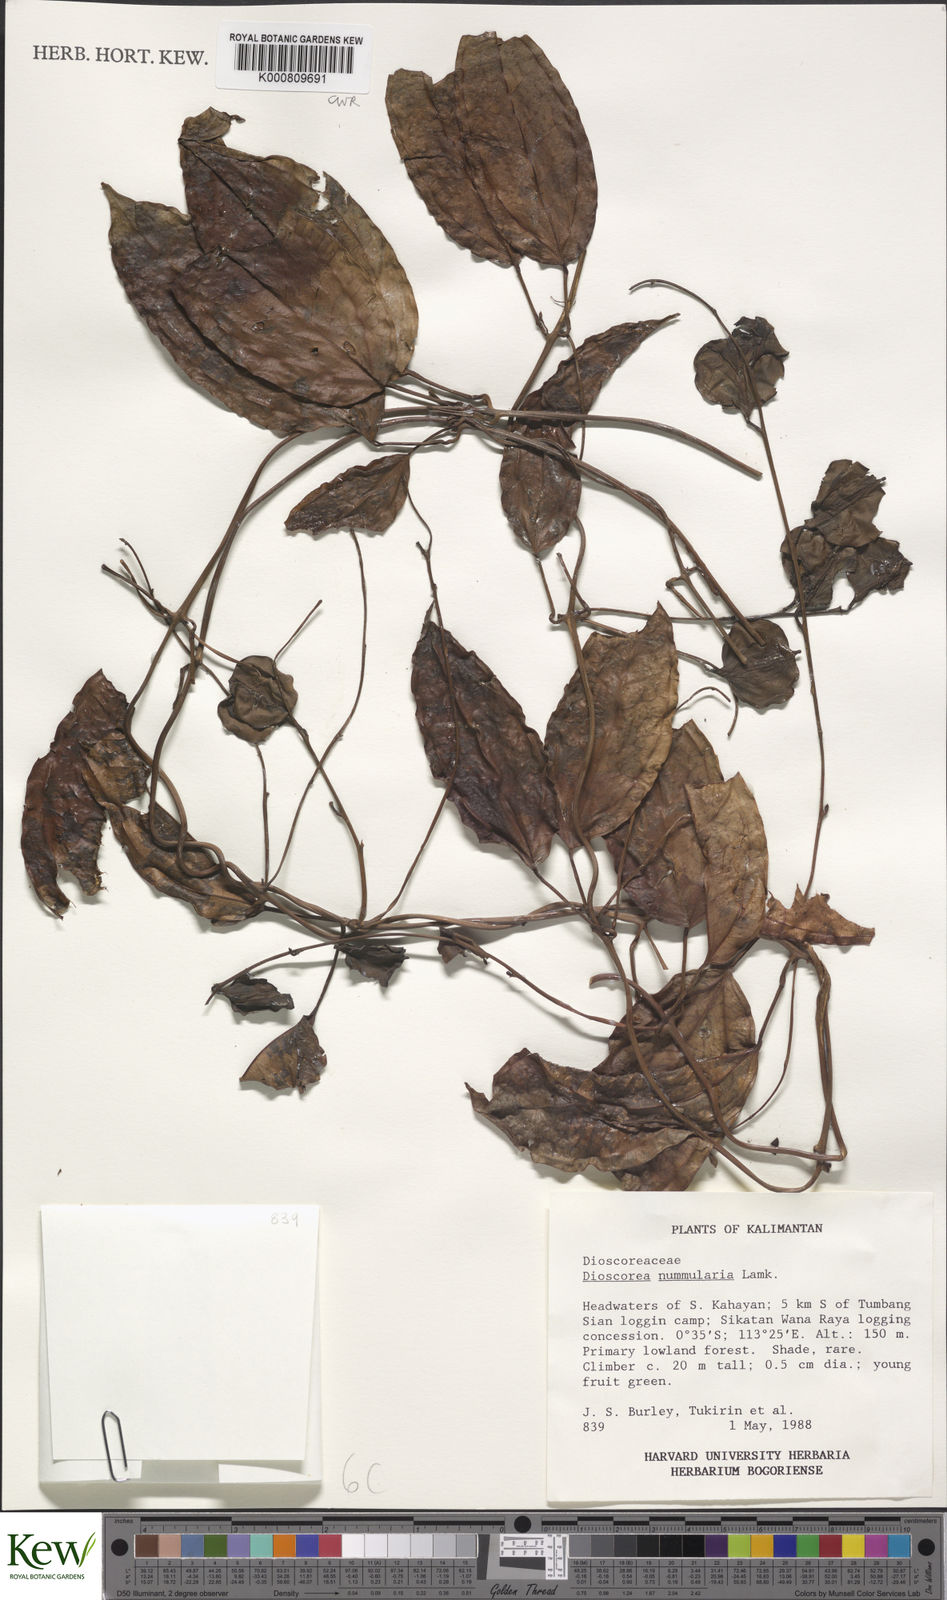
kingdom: Plantae
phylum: Tracheophyta
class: Liliopsida
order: Dioscoreales
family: Dioscoreaceae
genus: Dioscorea
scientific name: Dioscorea nummularia
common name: Pacific yam
